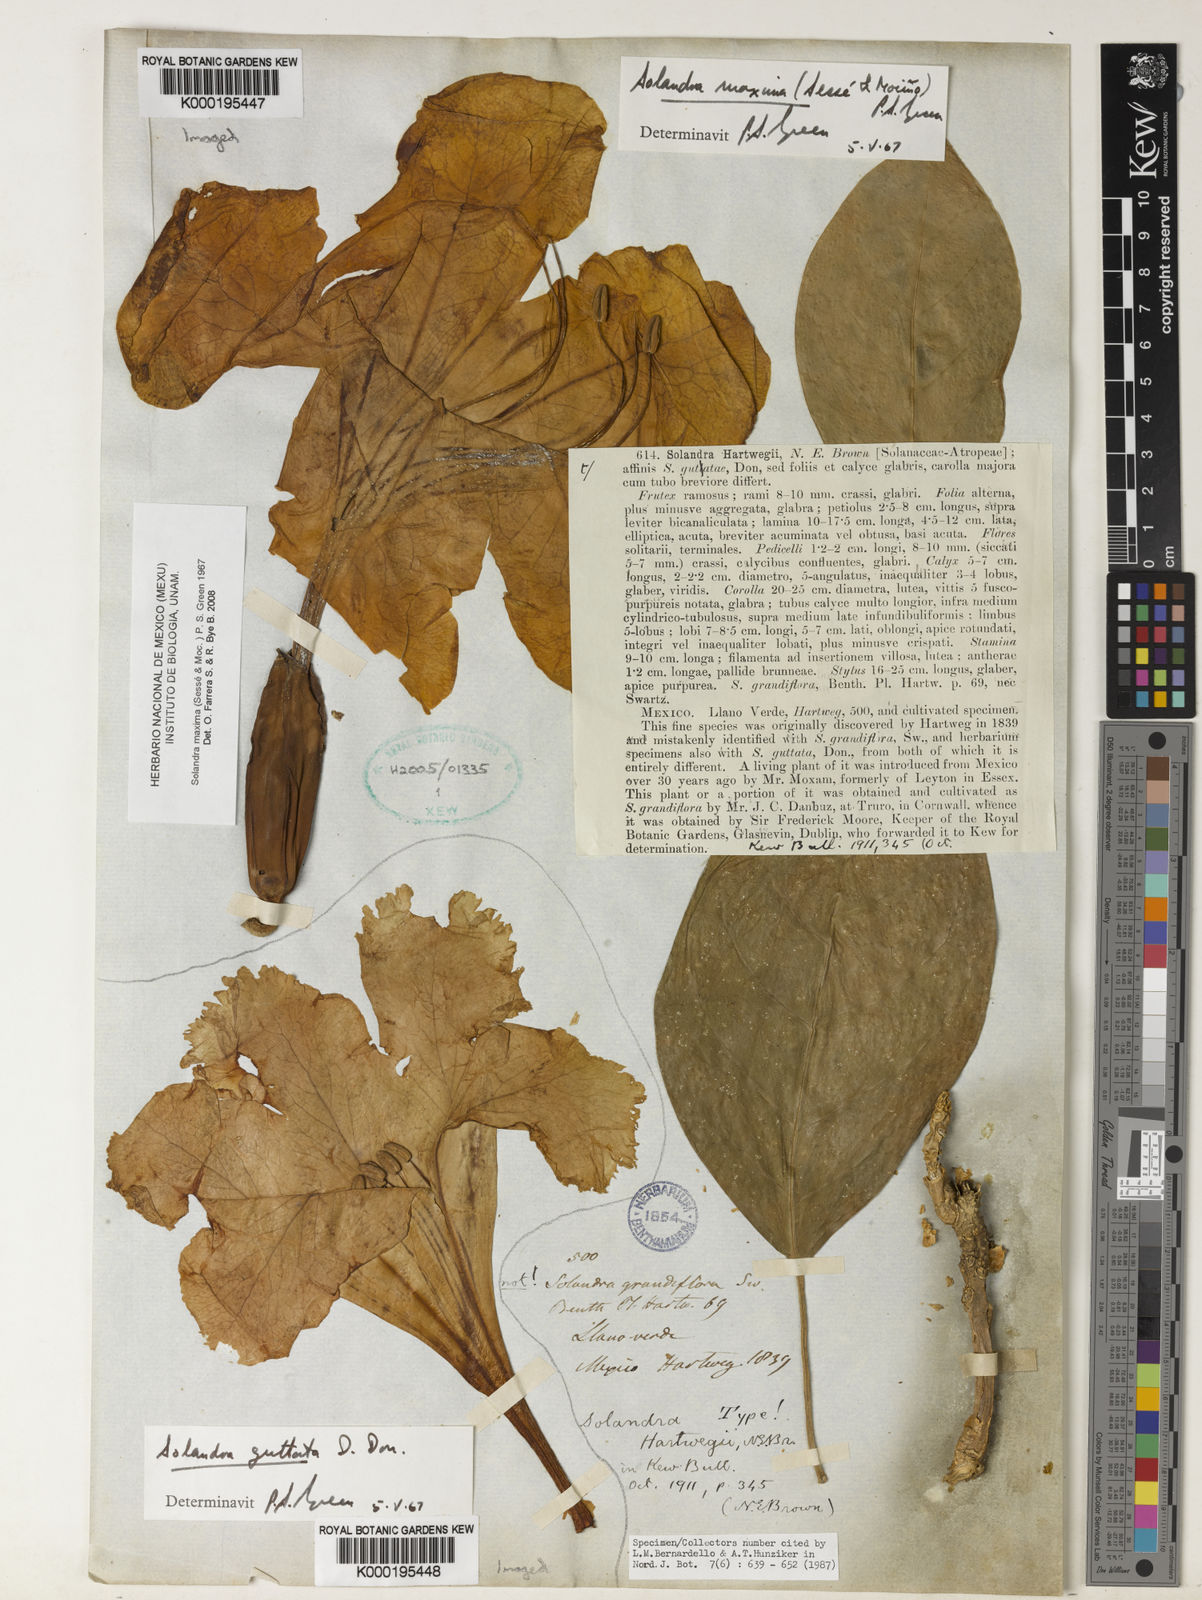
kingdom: Plantae
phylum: Tracheophyta
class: Magnoliopsida
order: Solanales
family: Solanaceae
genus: Solandra
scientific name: Solandra
